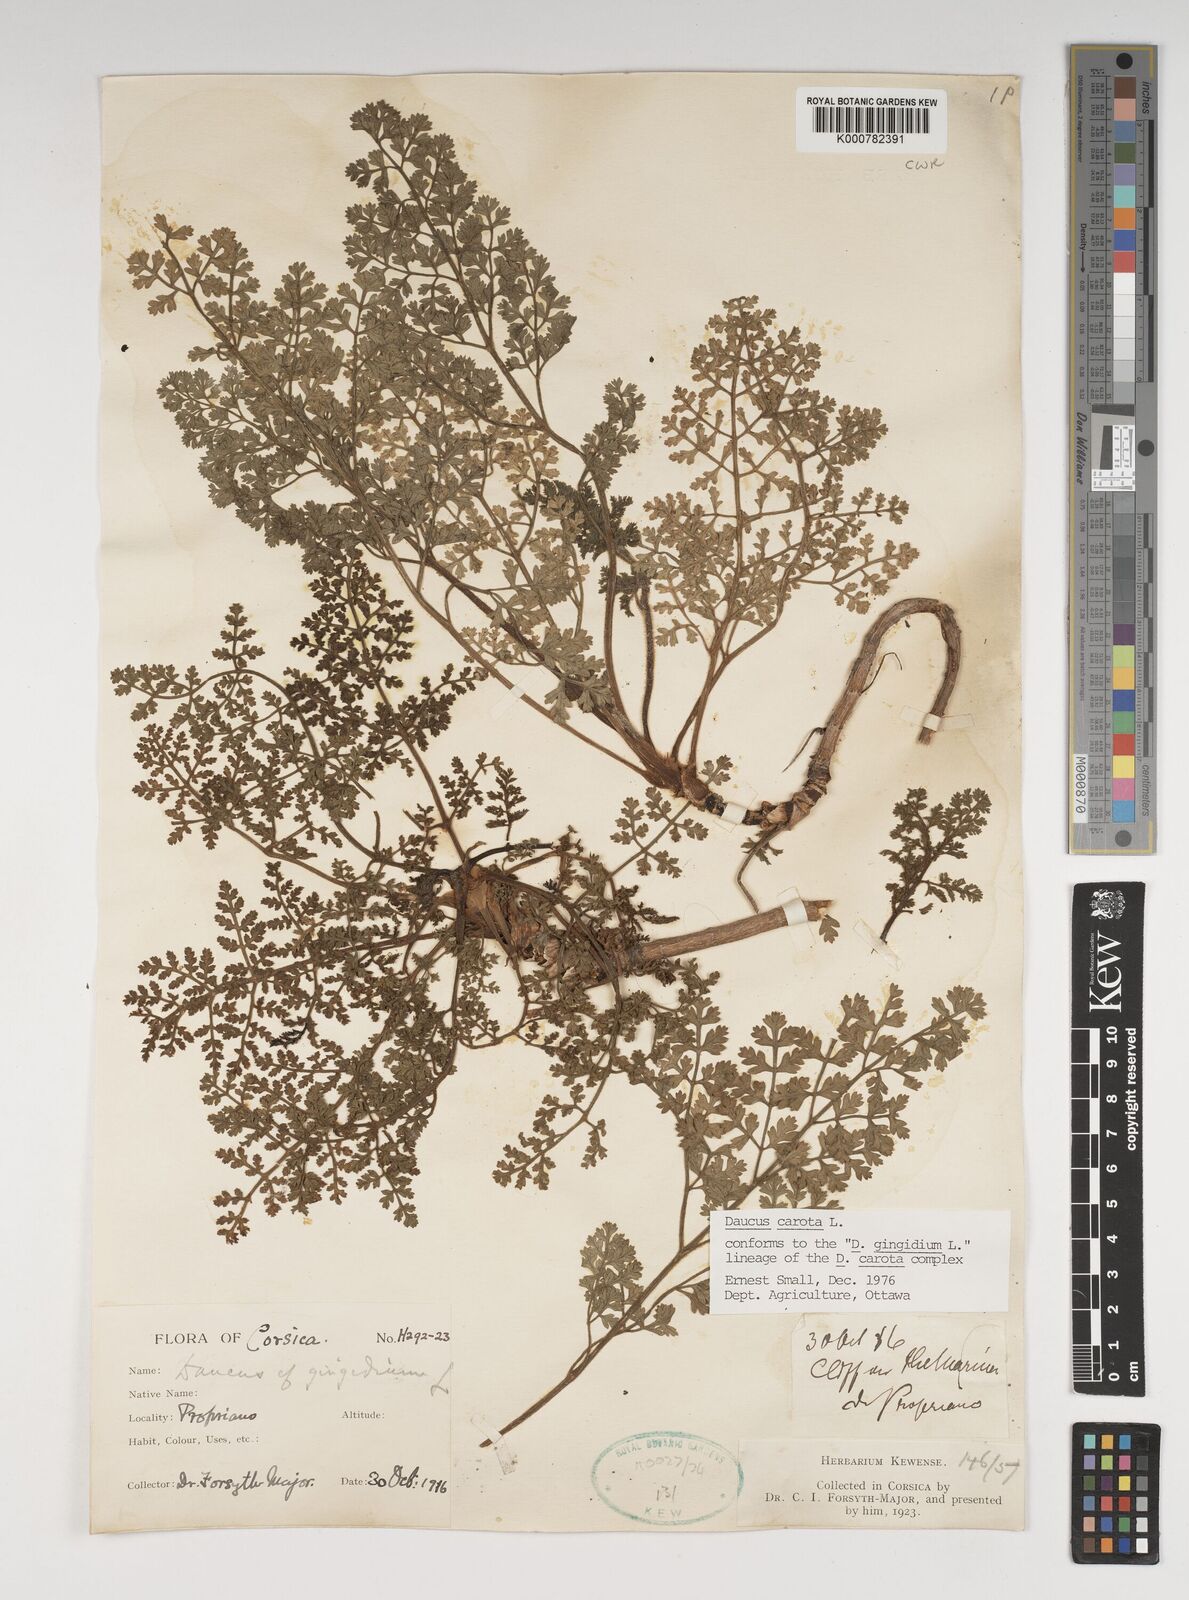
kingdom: Plantae
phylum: Tracheophyta
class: Magnoliopsida
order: Apiales
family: Apiaceae
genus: Daucus
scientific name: Daucus carota
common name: Wild carrot
